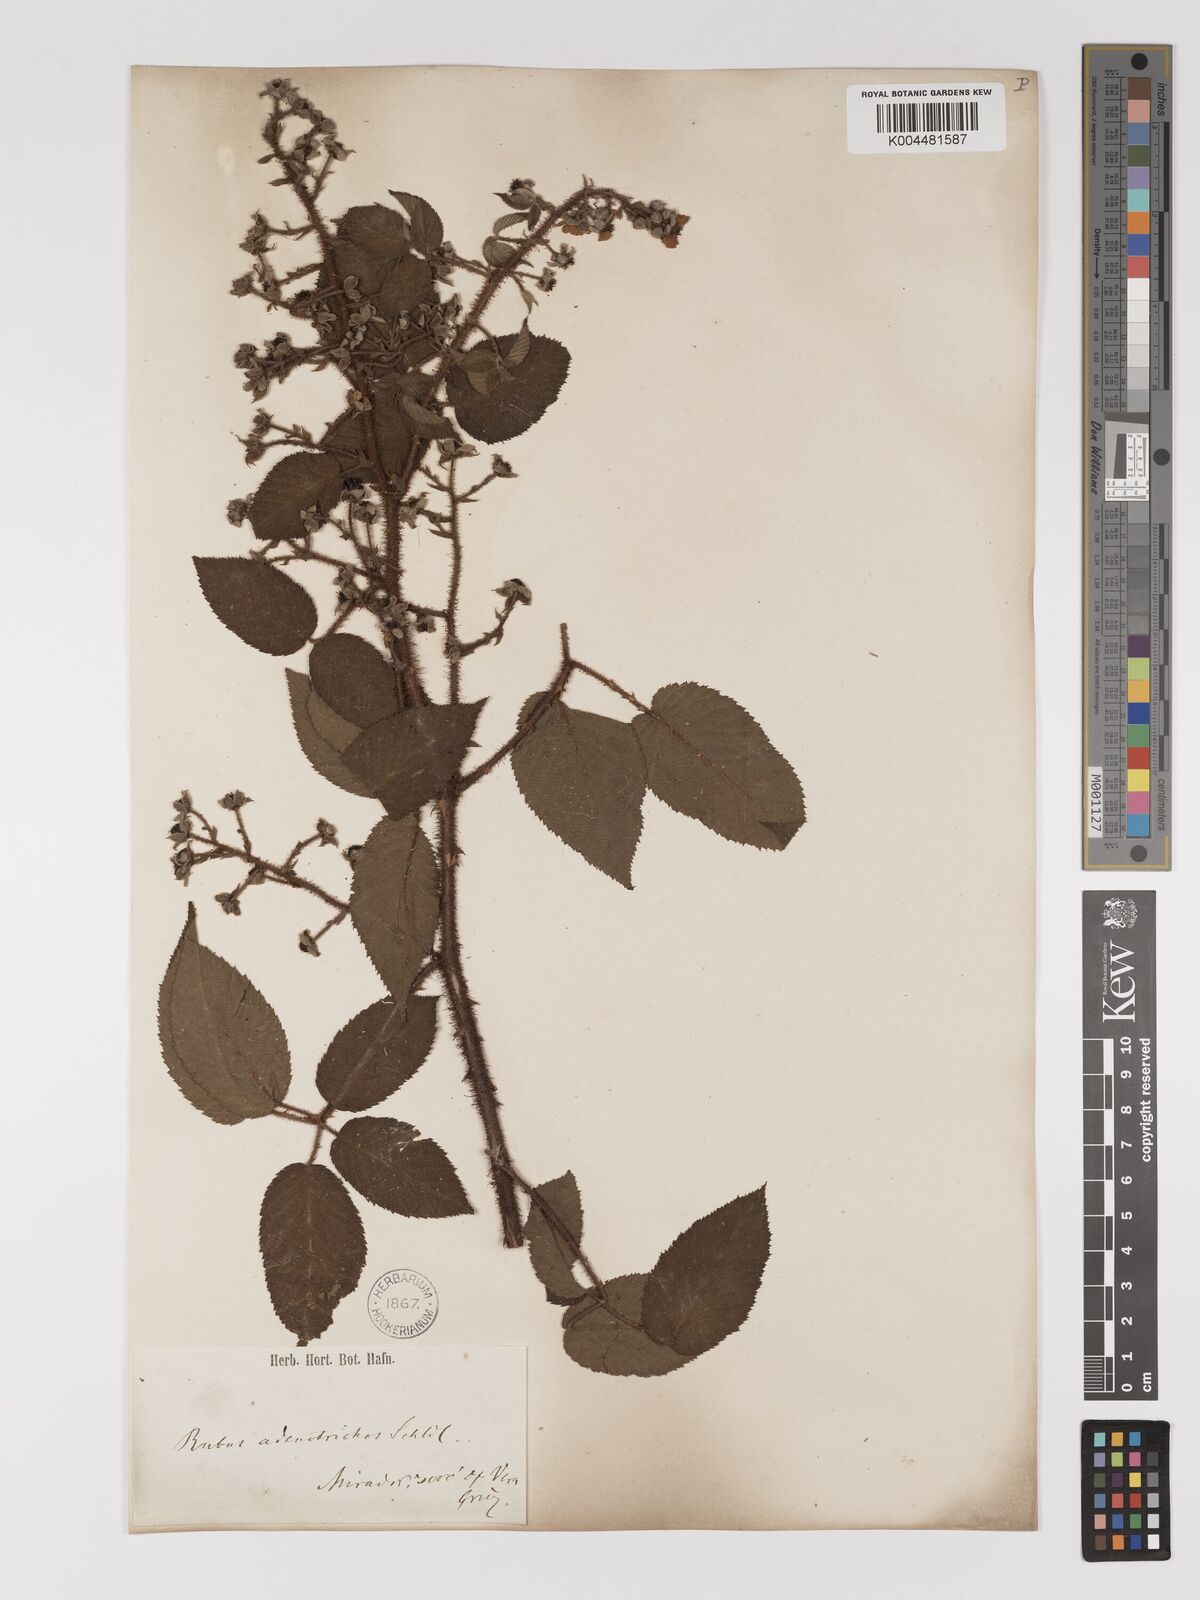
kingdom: Plantae
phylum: Tracheophyta
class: Magnoliopsida
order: Rosales
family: Rosaceae
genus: Rubus
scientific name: Rubus adenotrichos
